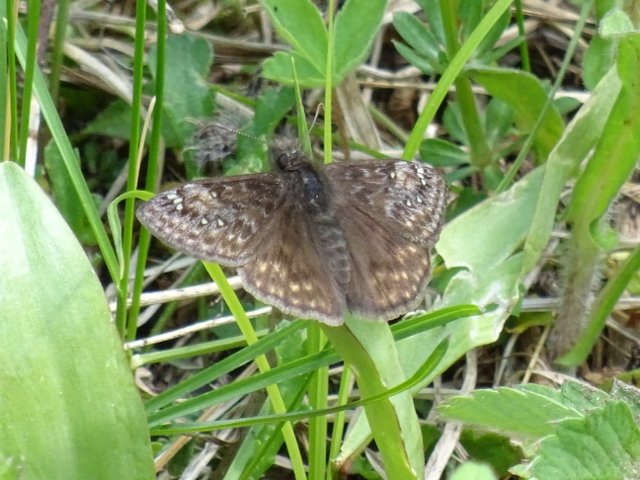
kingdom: Animalia
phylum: Arthropoda
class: Insecta
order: Lepidoptera
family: Hesperiidae
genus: Gesta
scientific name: Gesta
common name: Juvenal's Duskywing
